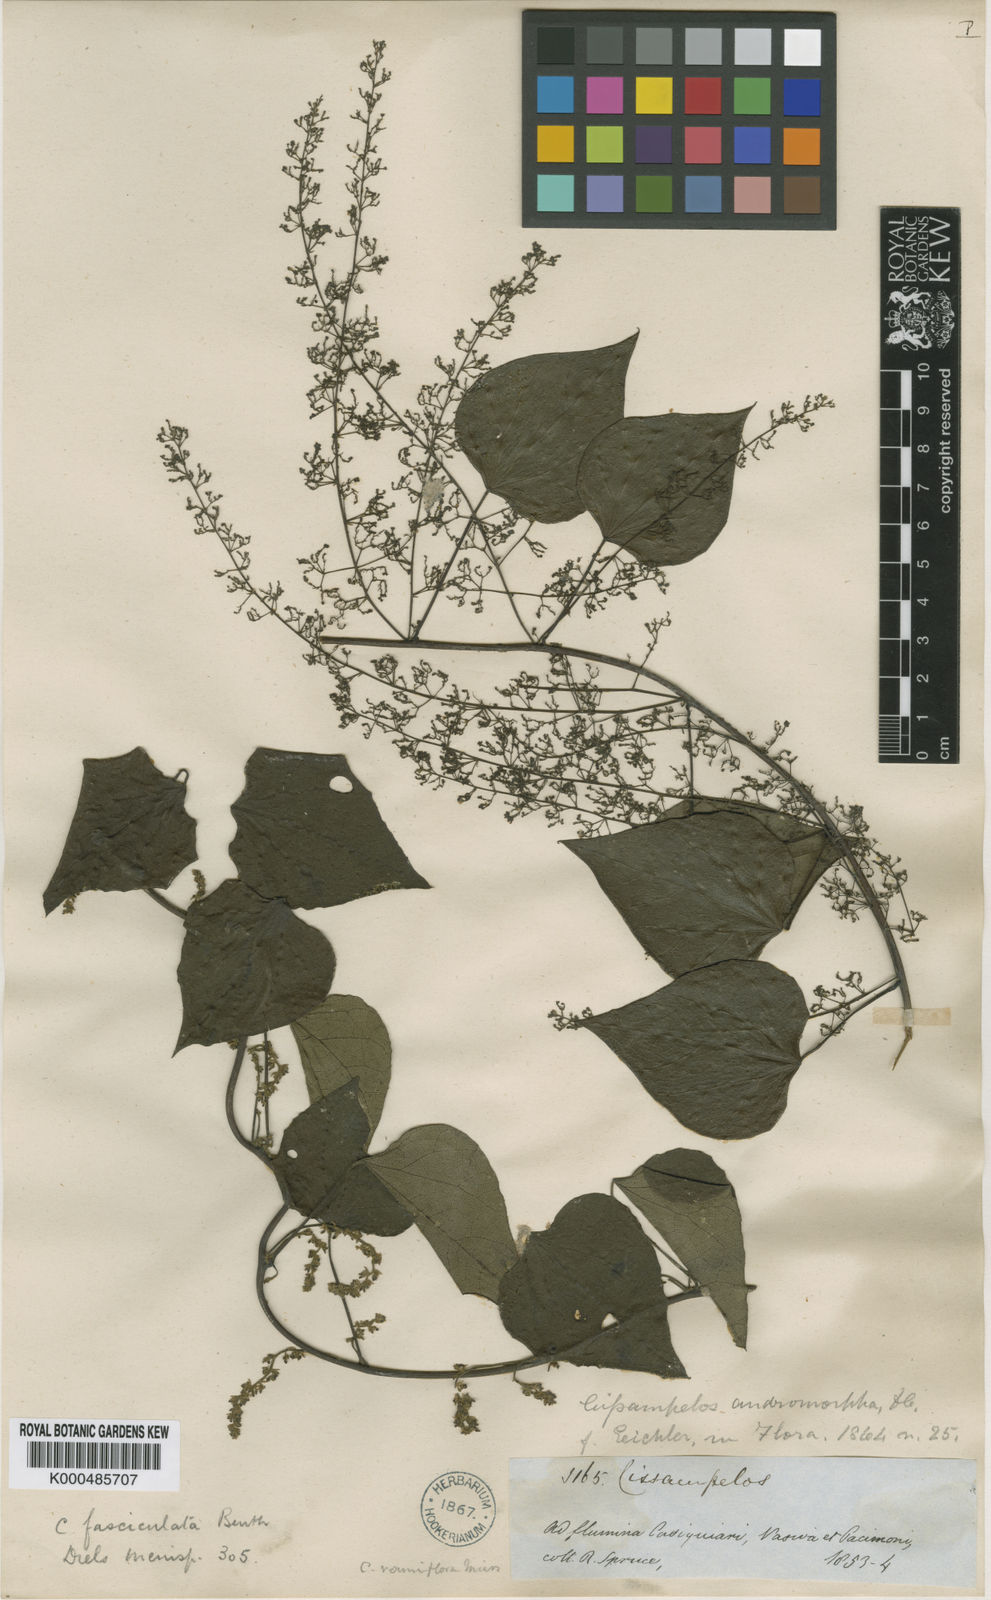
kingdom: Plantae
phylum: Tracheophyta
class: Magnoliopsida
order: Ranunculales
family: Menispermaceae
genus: Cissampelos
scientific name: Cissampelos fasciculata
